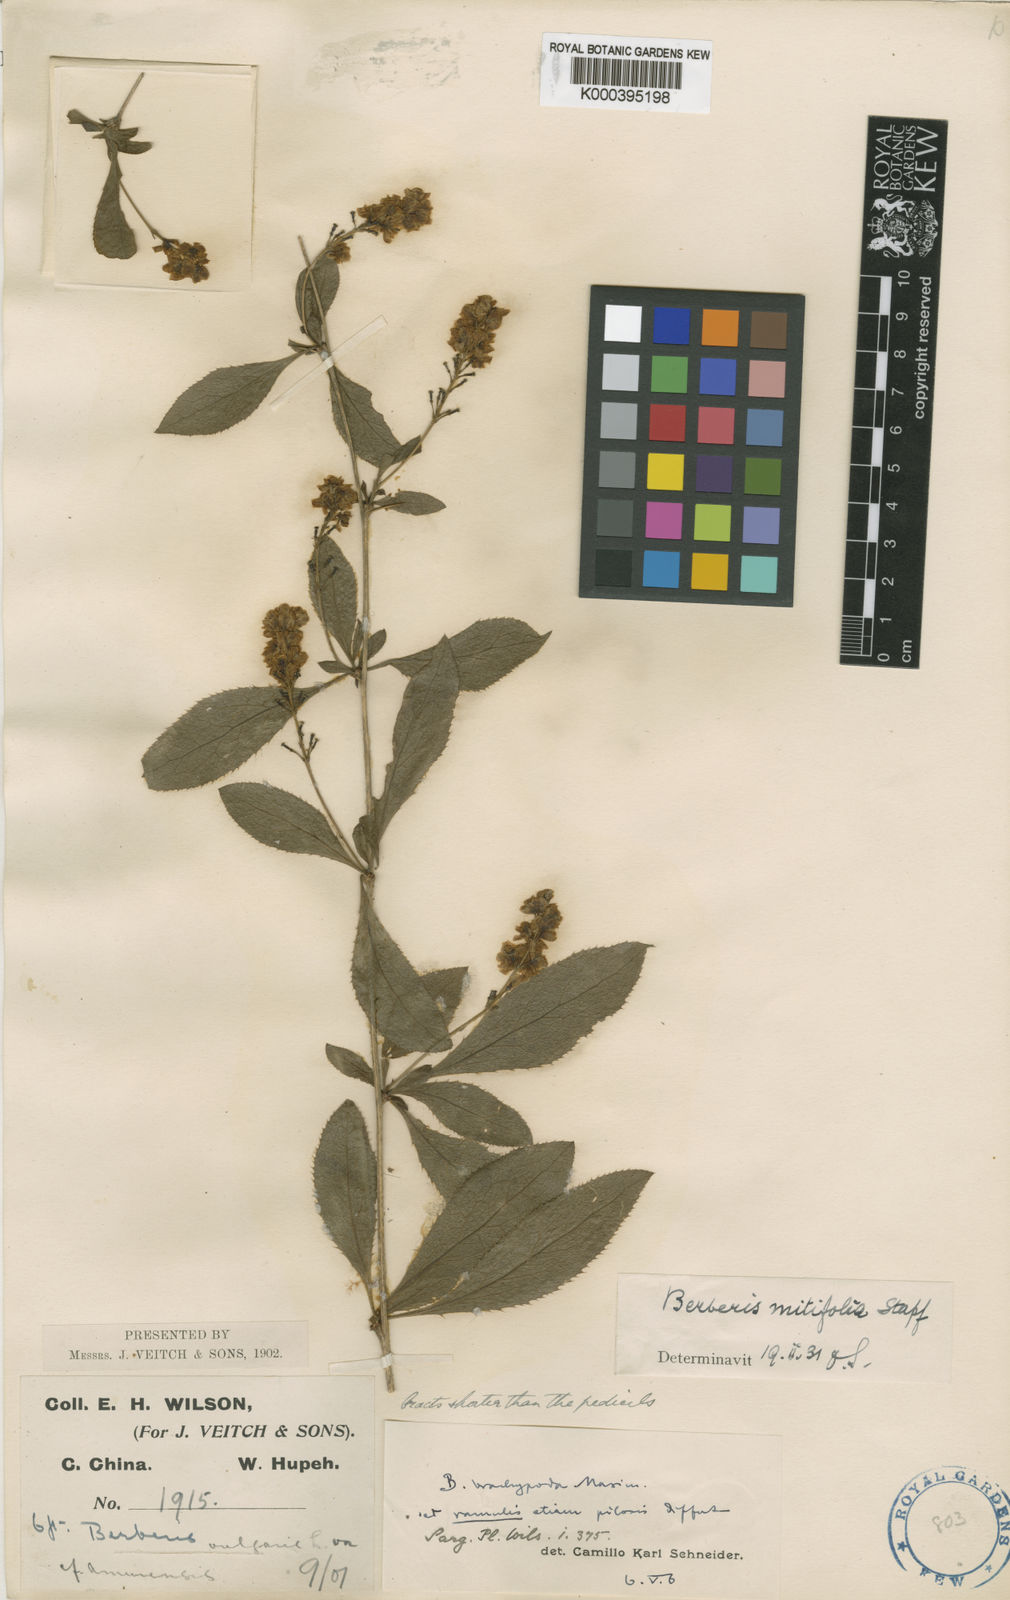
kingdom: Plantae
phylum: Tracheophyta
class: Magnoliopsida
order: Ranunculales
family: Berberidaceae
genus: Berberis
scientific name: Berberis subsessiliflora
